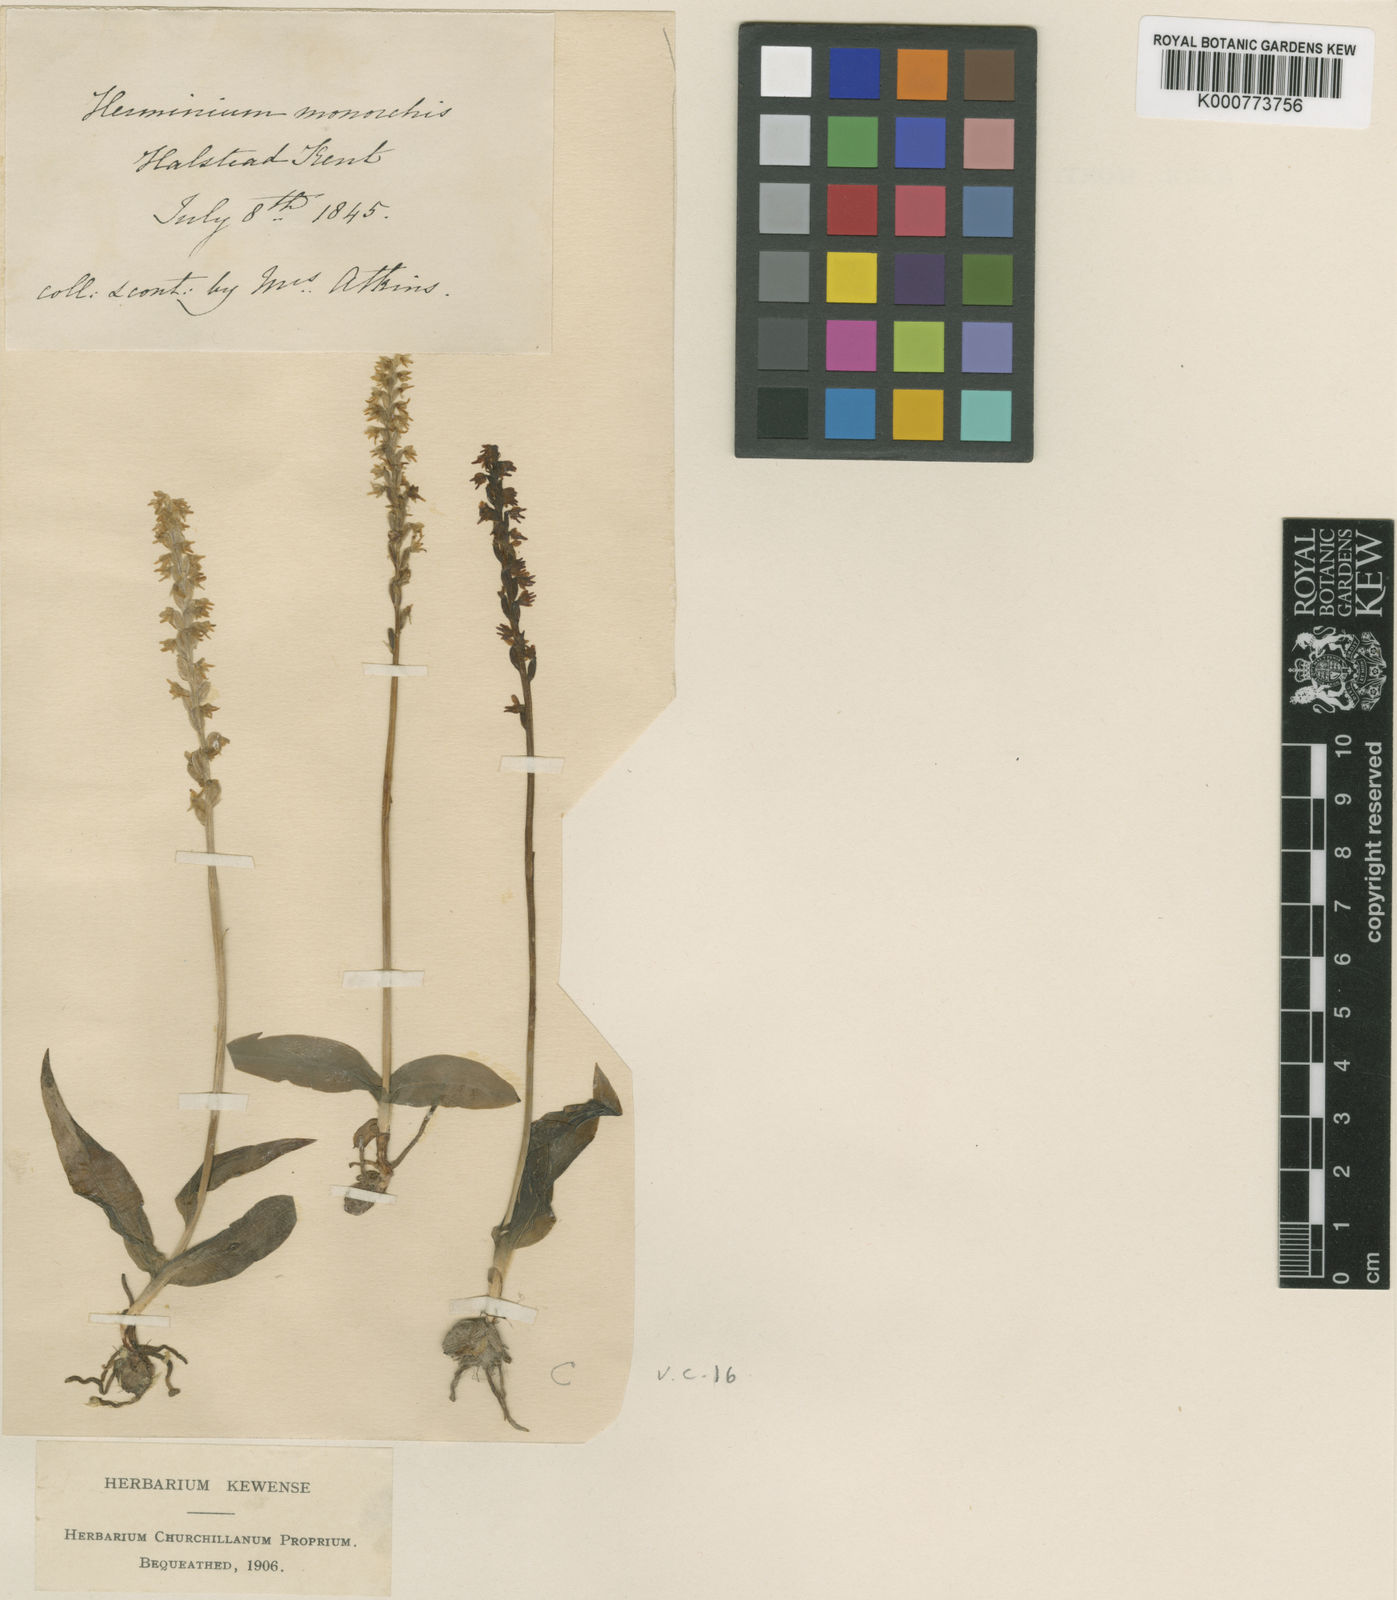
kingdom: Plantae
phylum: Tracheophyta
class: Liliopsida
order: Asparagales
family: Orchidaceae
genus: Herminium
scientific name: Herminium monorchis
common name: Musk orchid
